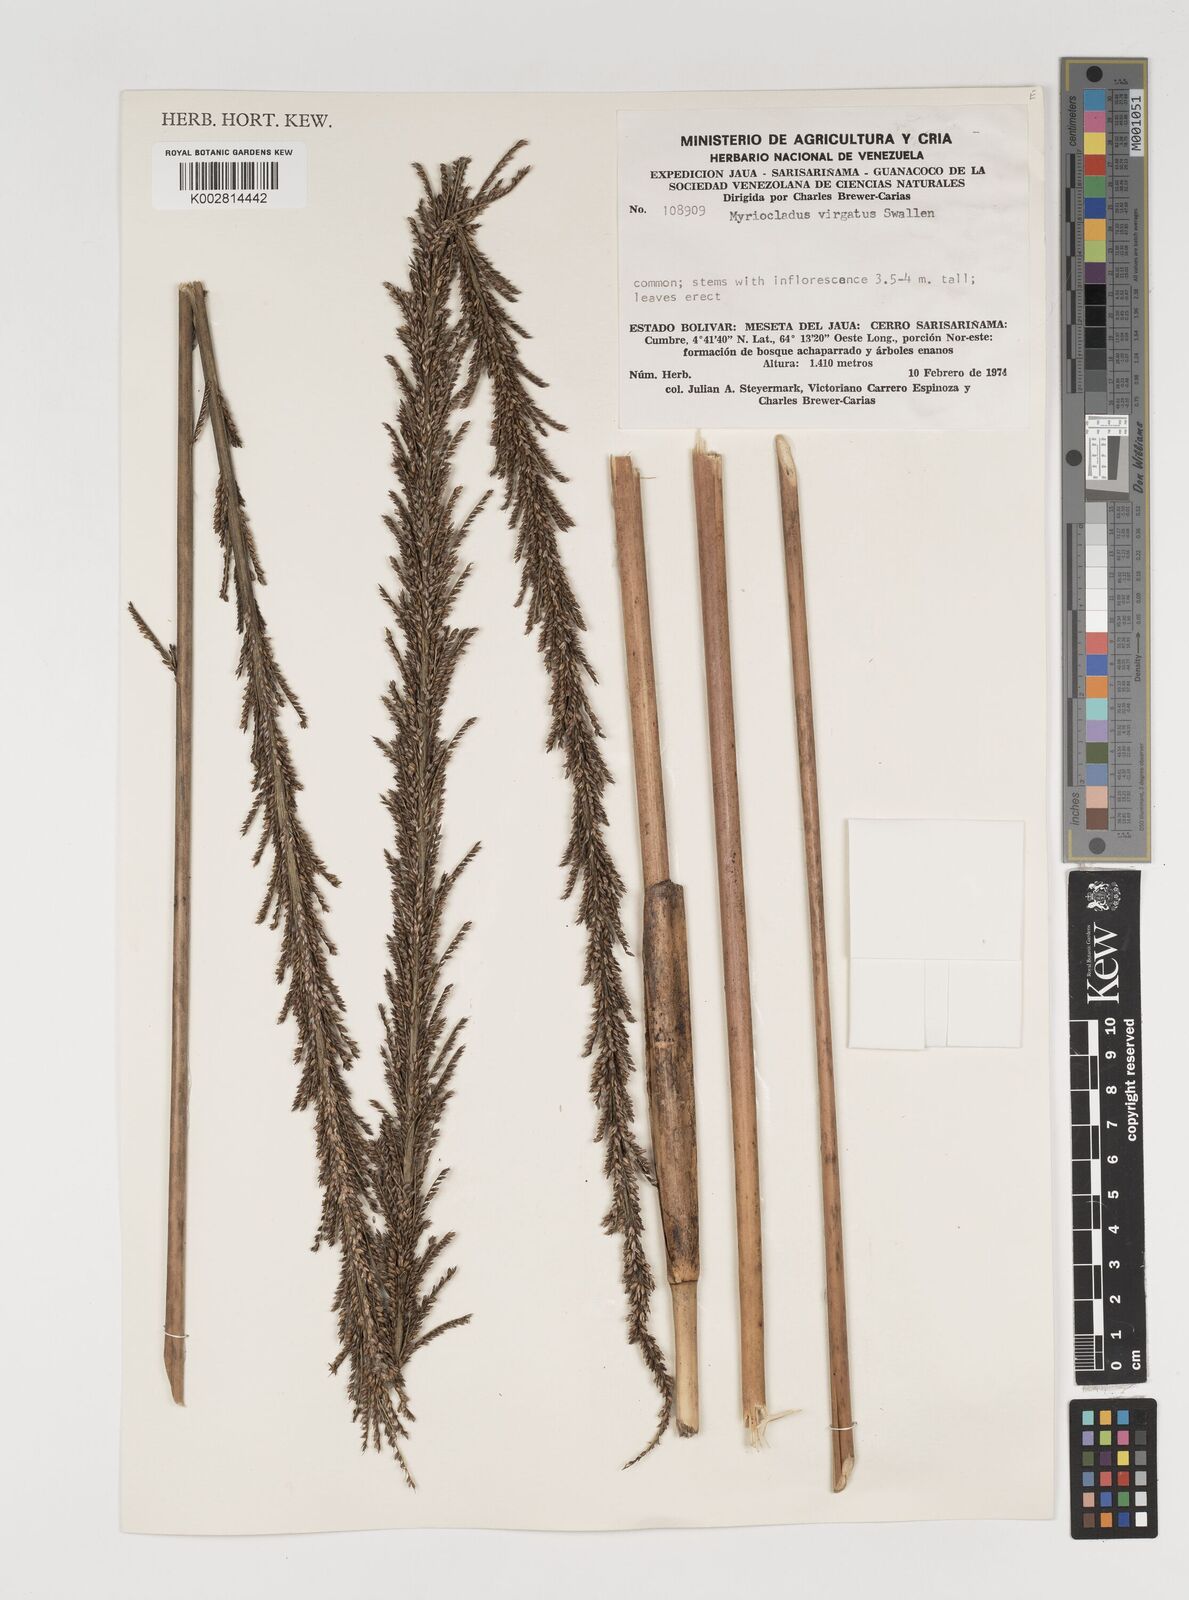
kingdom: Plantae
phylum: Tracheophyta
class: Liliopsida
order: Poales
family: Poaceae
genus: Myriocladus
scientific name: Myriocladus virgatus
